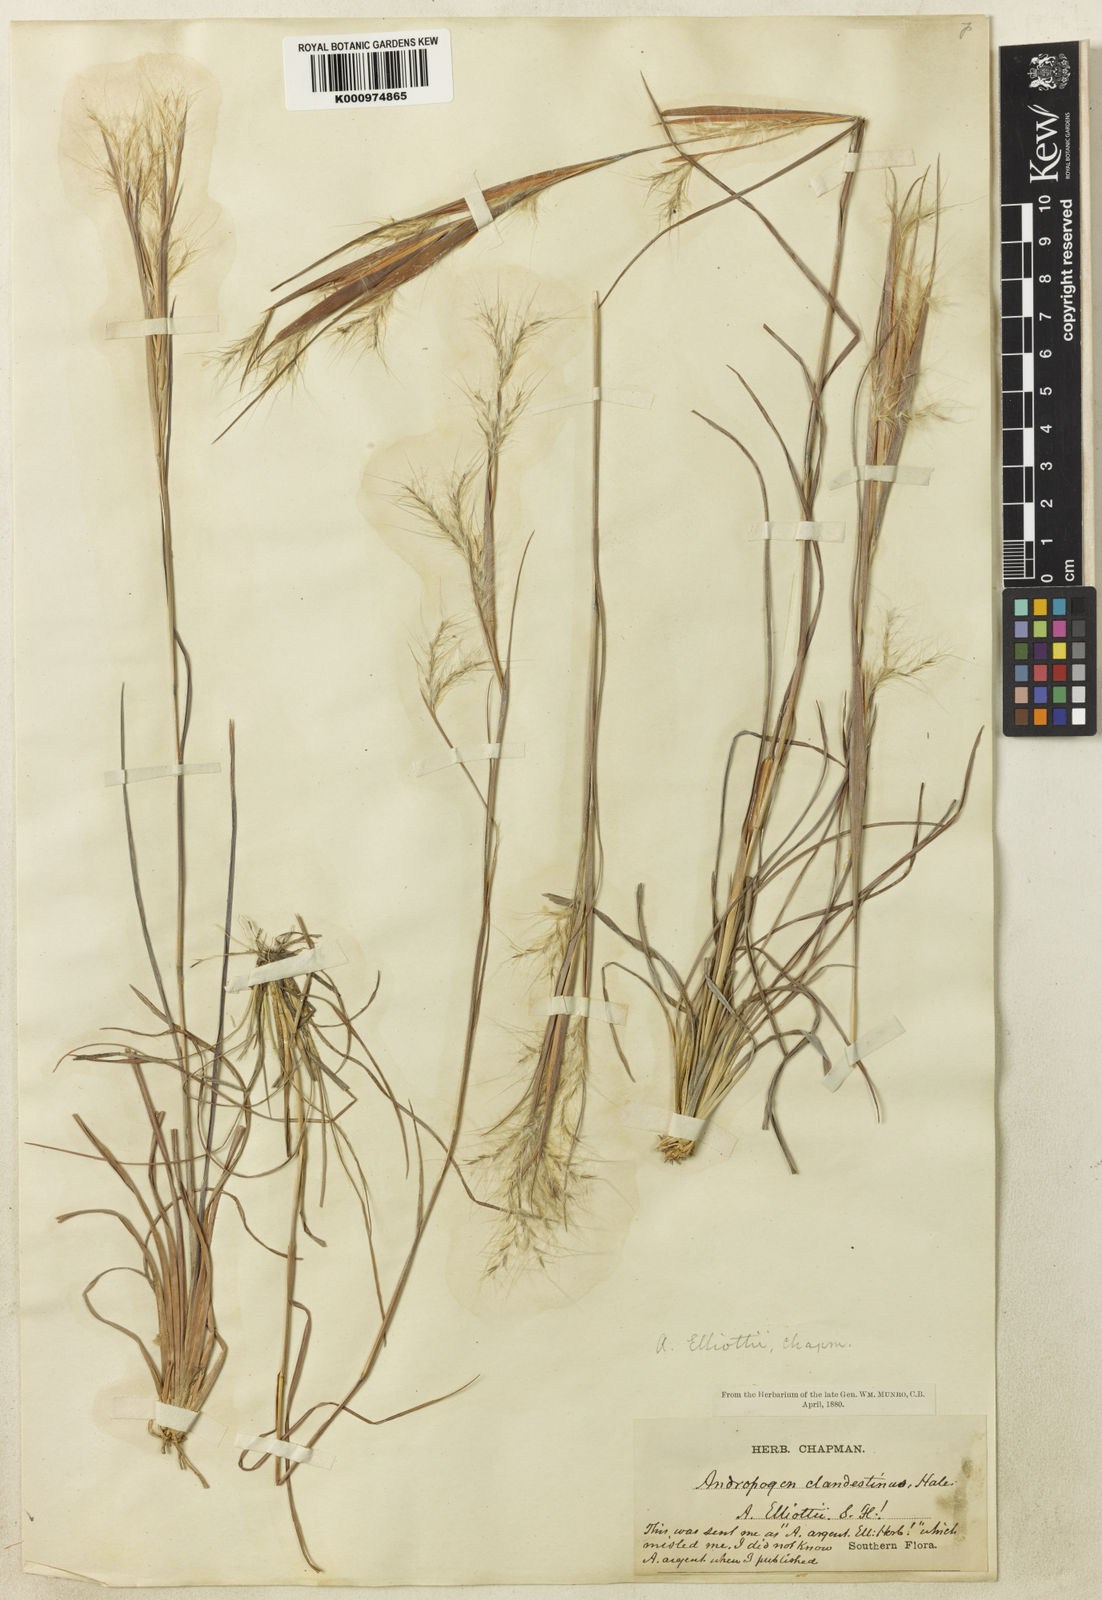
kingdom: Plantae
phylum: Tracheophyta
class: Liliopsida
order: Poales
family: Poaceae
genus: Andropogon
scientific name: Andropogon gyrans
